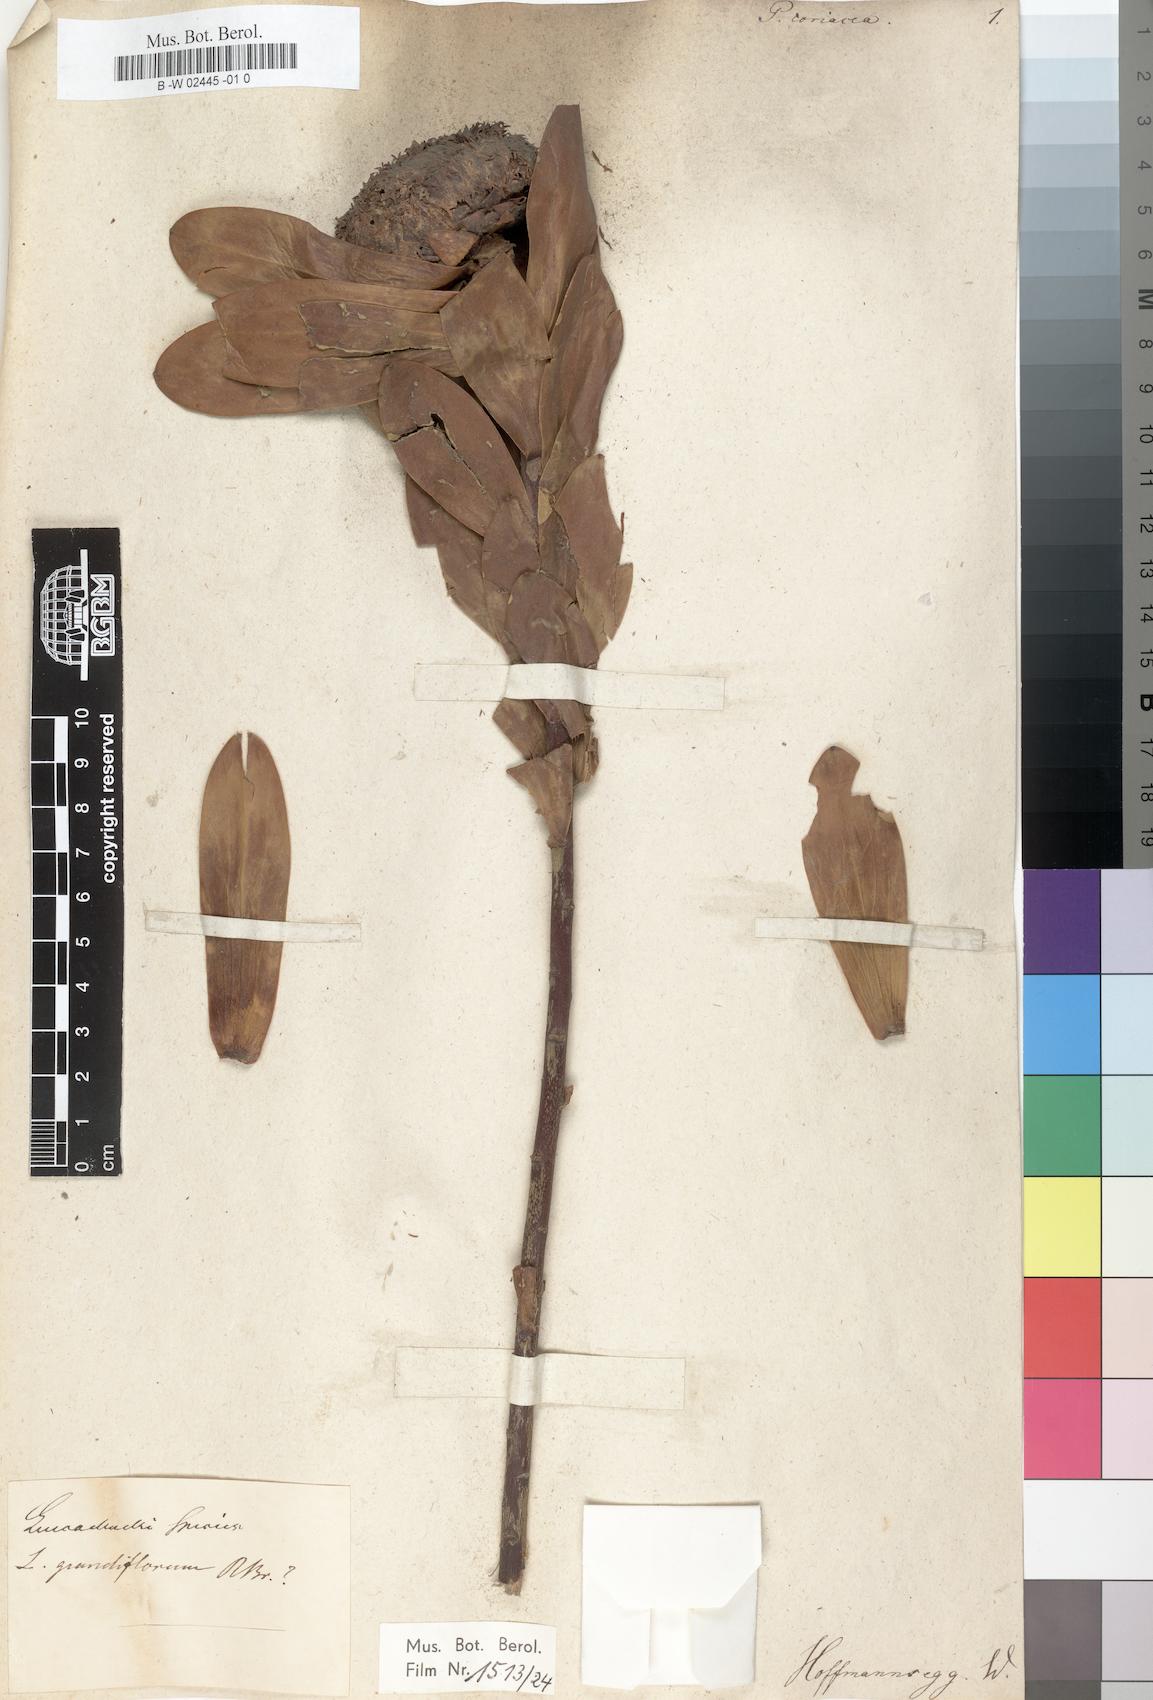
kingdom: Plantae
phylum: Tracheophyta
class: Magnoliopsida
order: Proteales
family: Proteaceae
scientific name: Proteaceae
